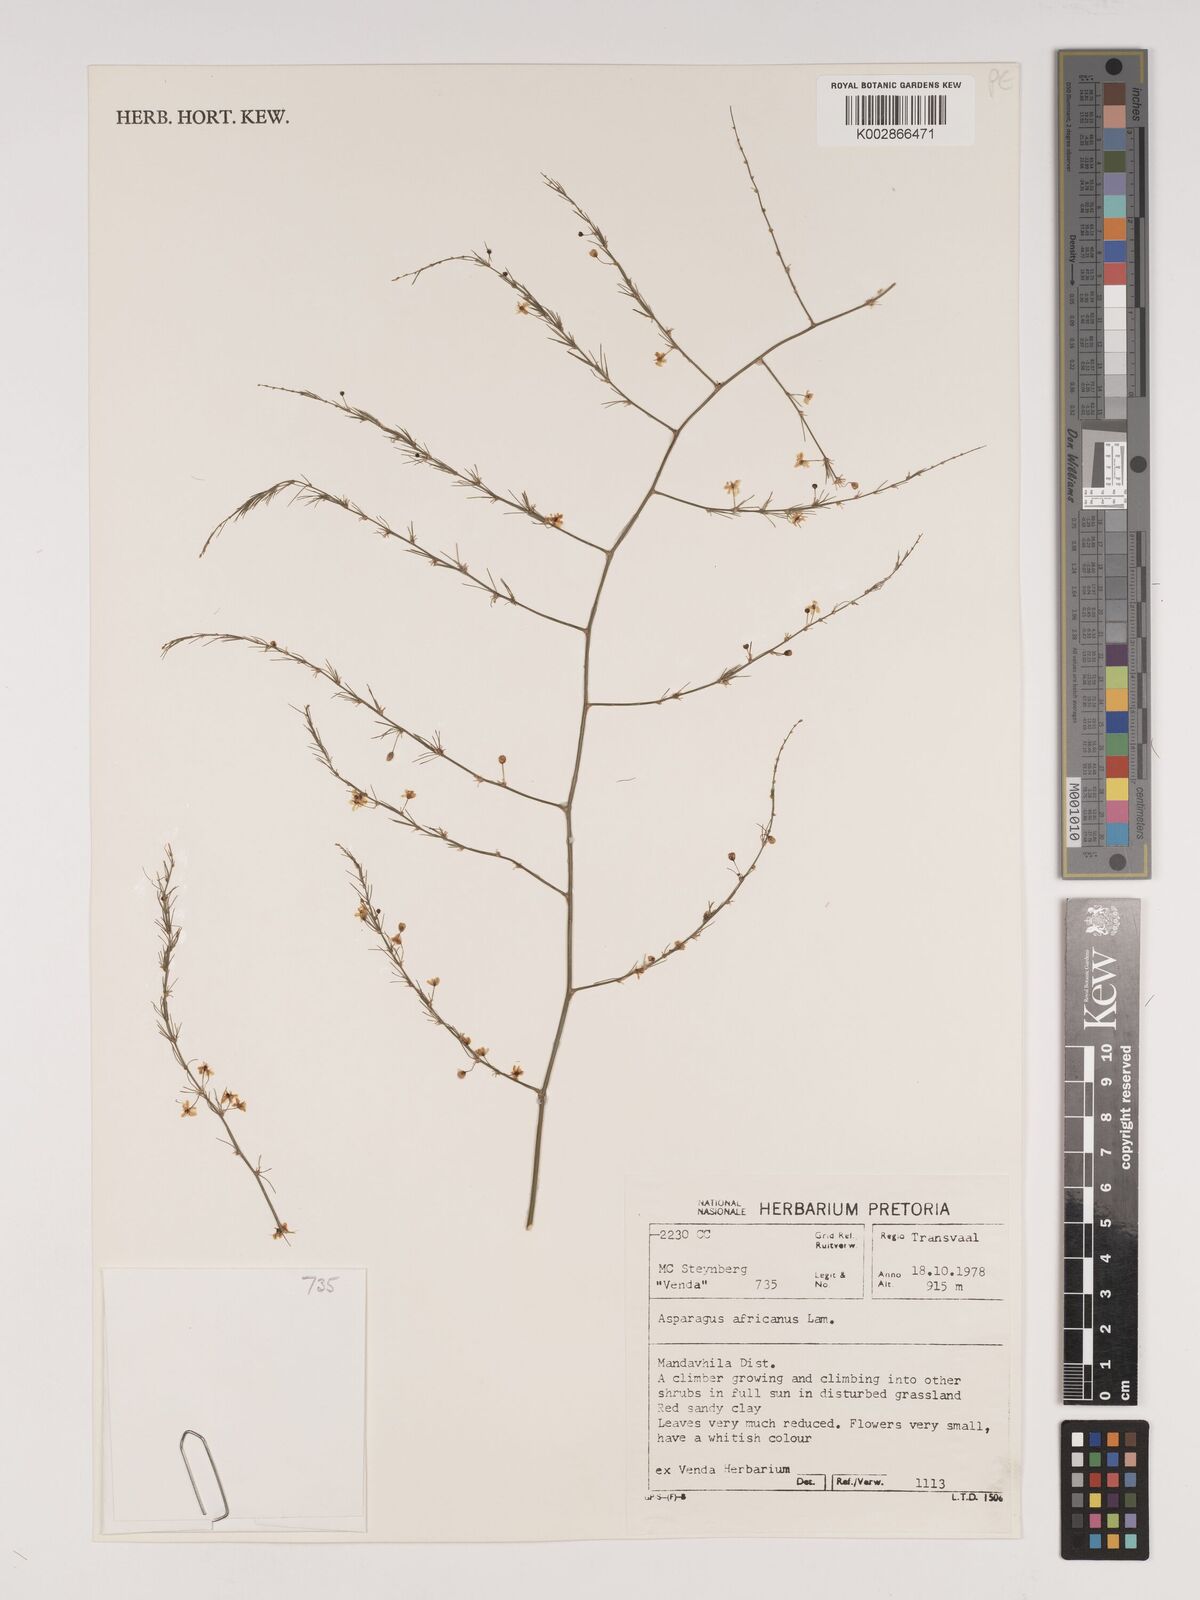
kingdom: Plantae
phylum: Tracheophyta
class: Liliopsida
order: Asparagales
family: Asparagaceae
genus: Asparagus
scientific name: Asparagus africanus
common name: Asparagus-fern
